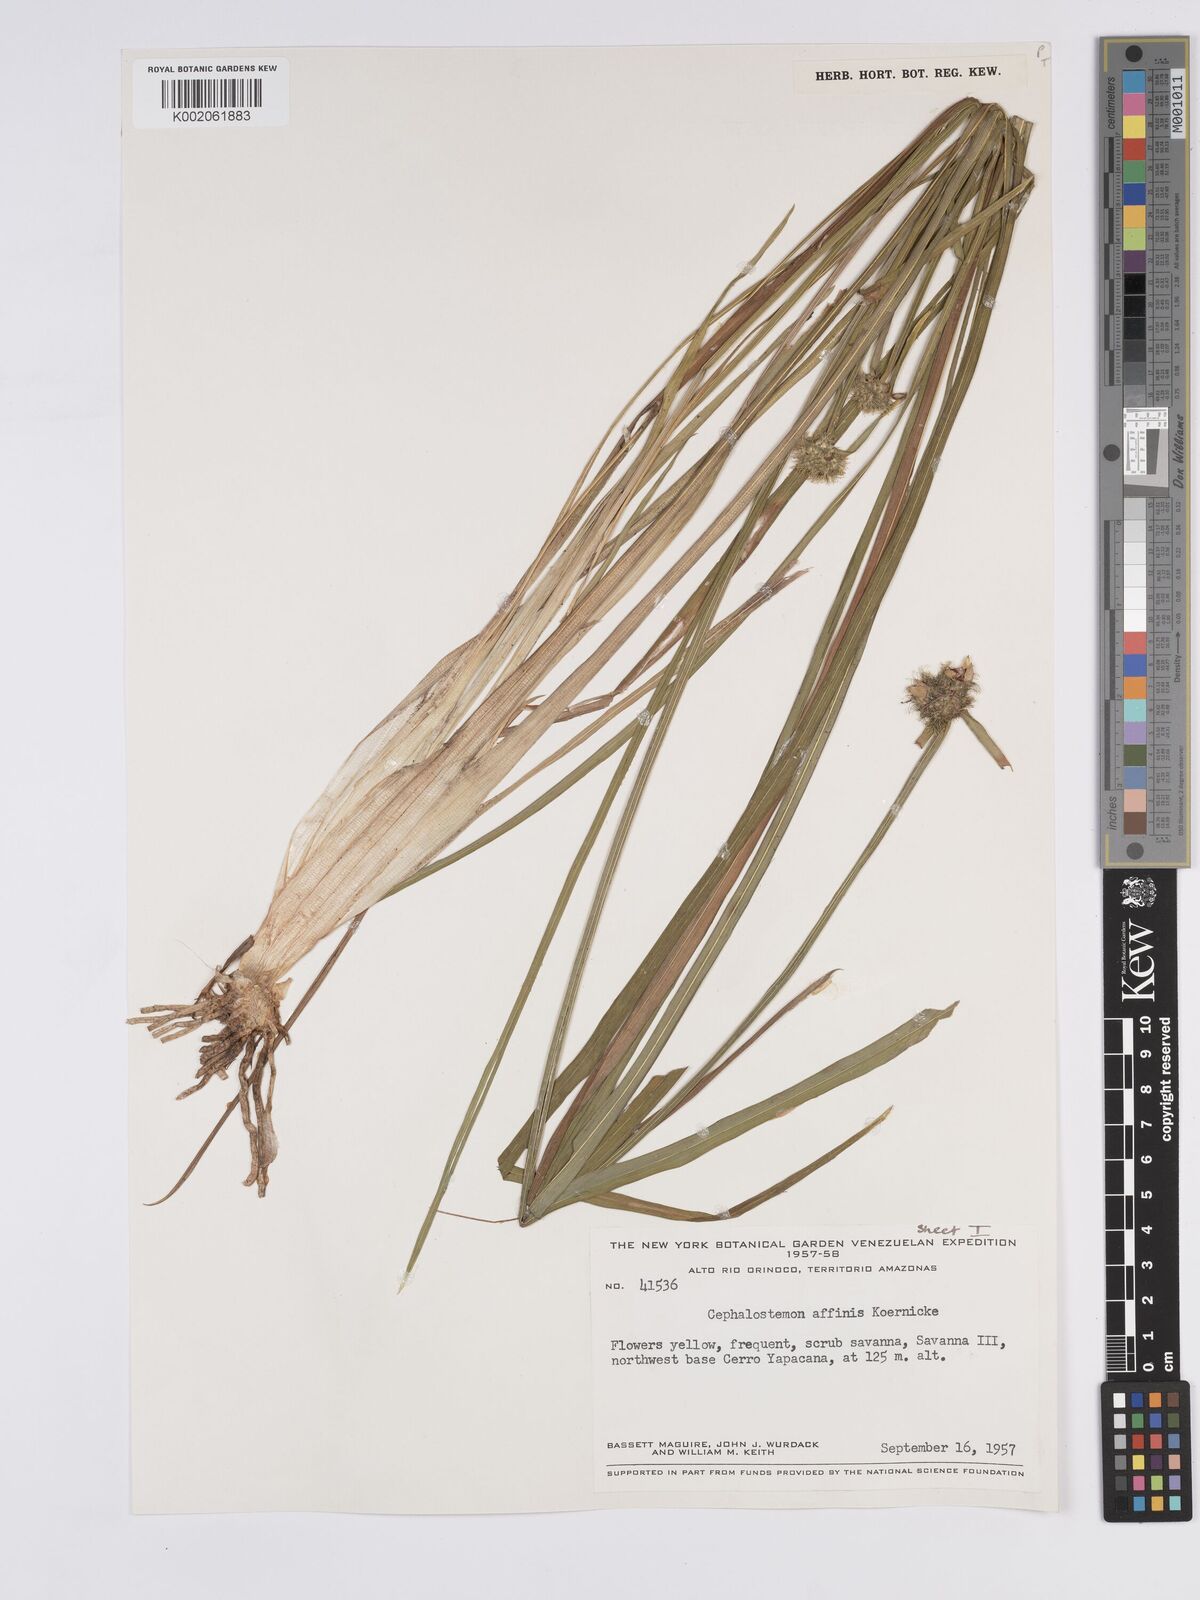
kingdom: Plantae
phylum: Tracheophyta
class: Liliopsida
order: Poales
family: Rapateaceae
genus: Cephalostemon
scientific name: Cephalostemon affinis
